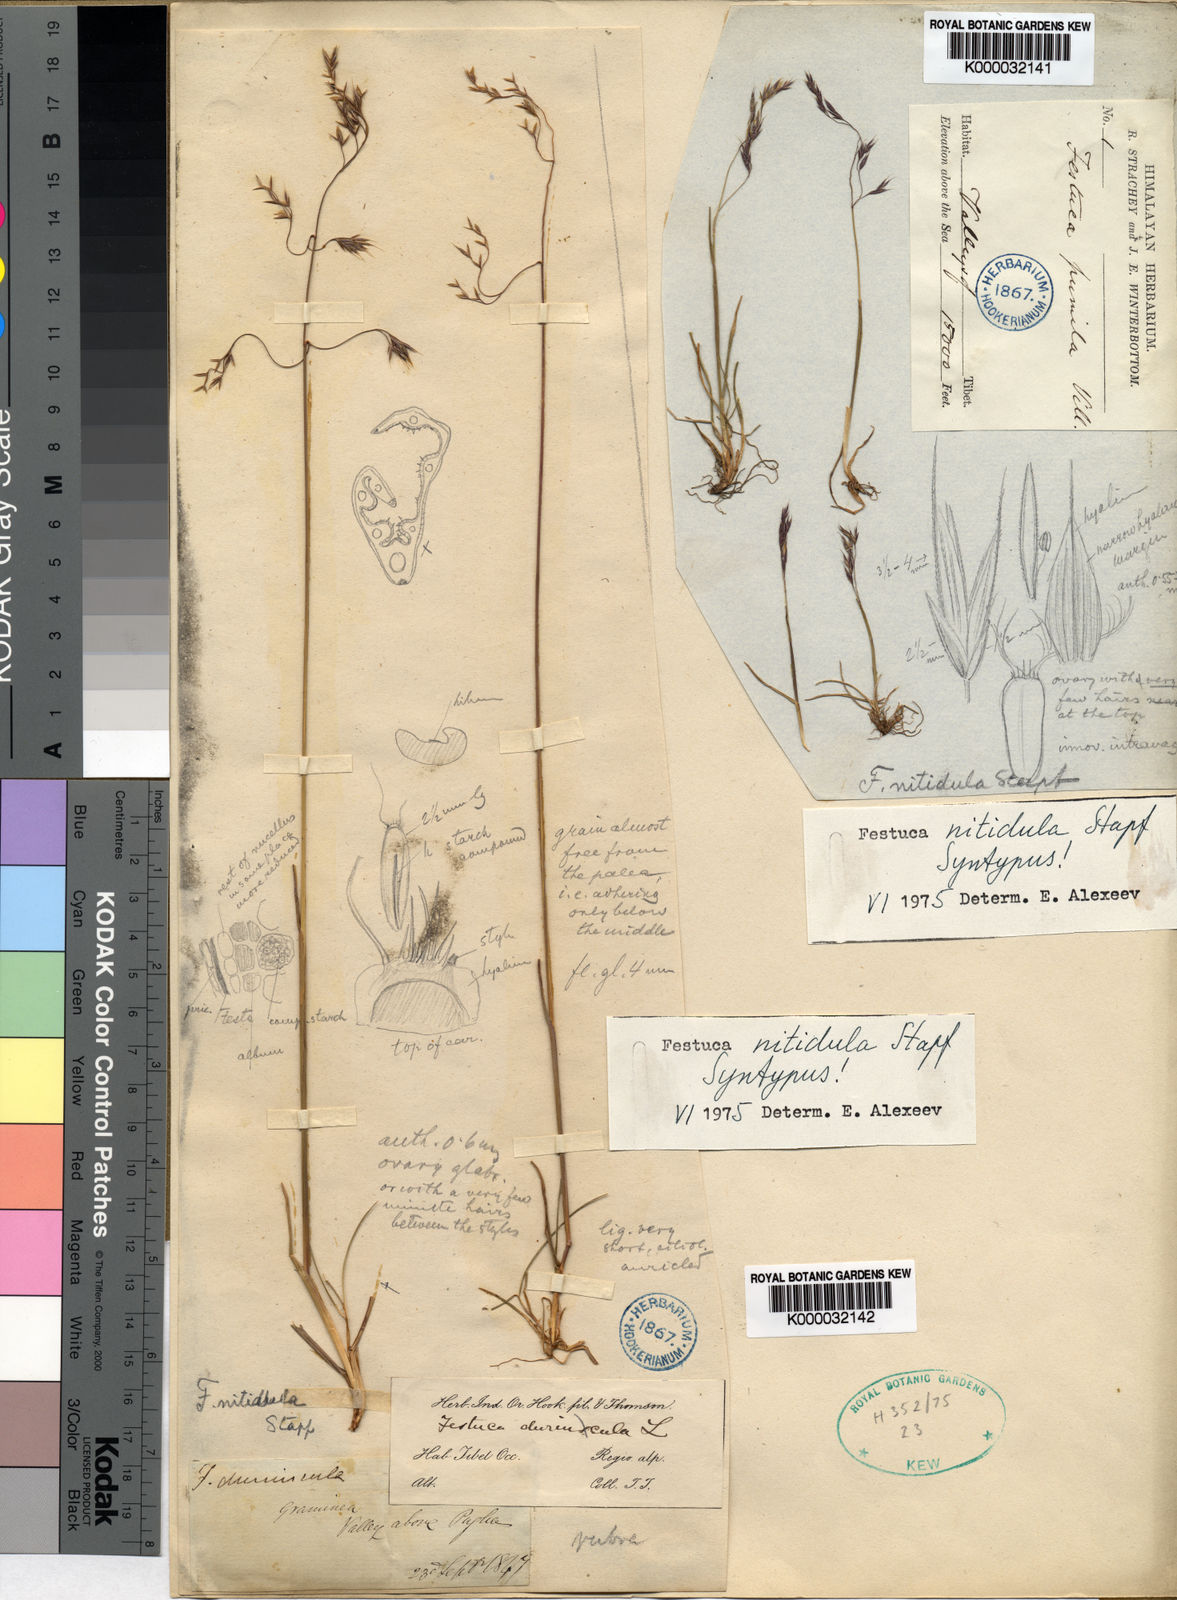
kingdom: Plantae
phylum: Tracheophyta
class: Liliopsida
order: Poales
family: Poaceae
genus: Festuca
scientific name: Festuca nitidula
